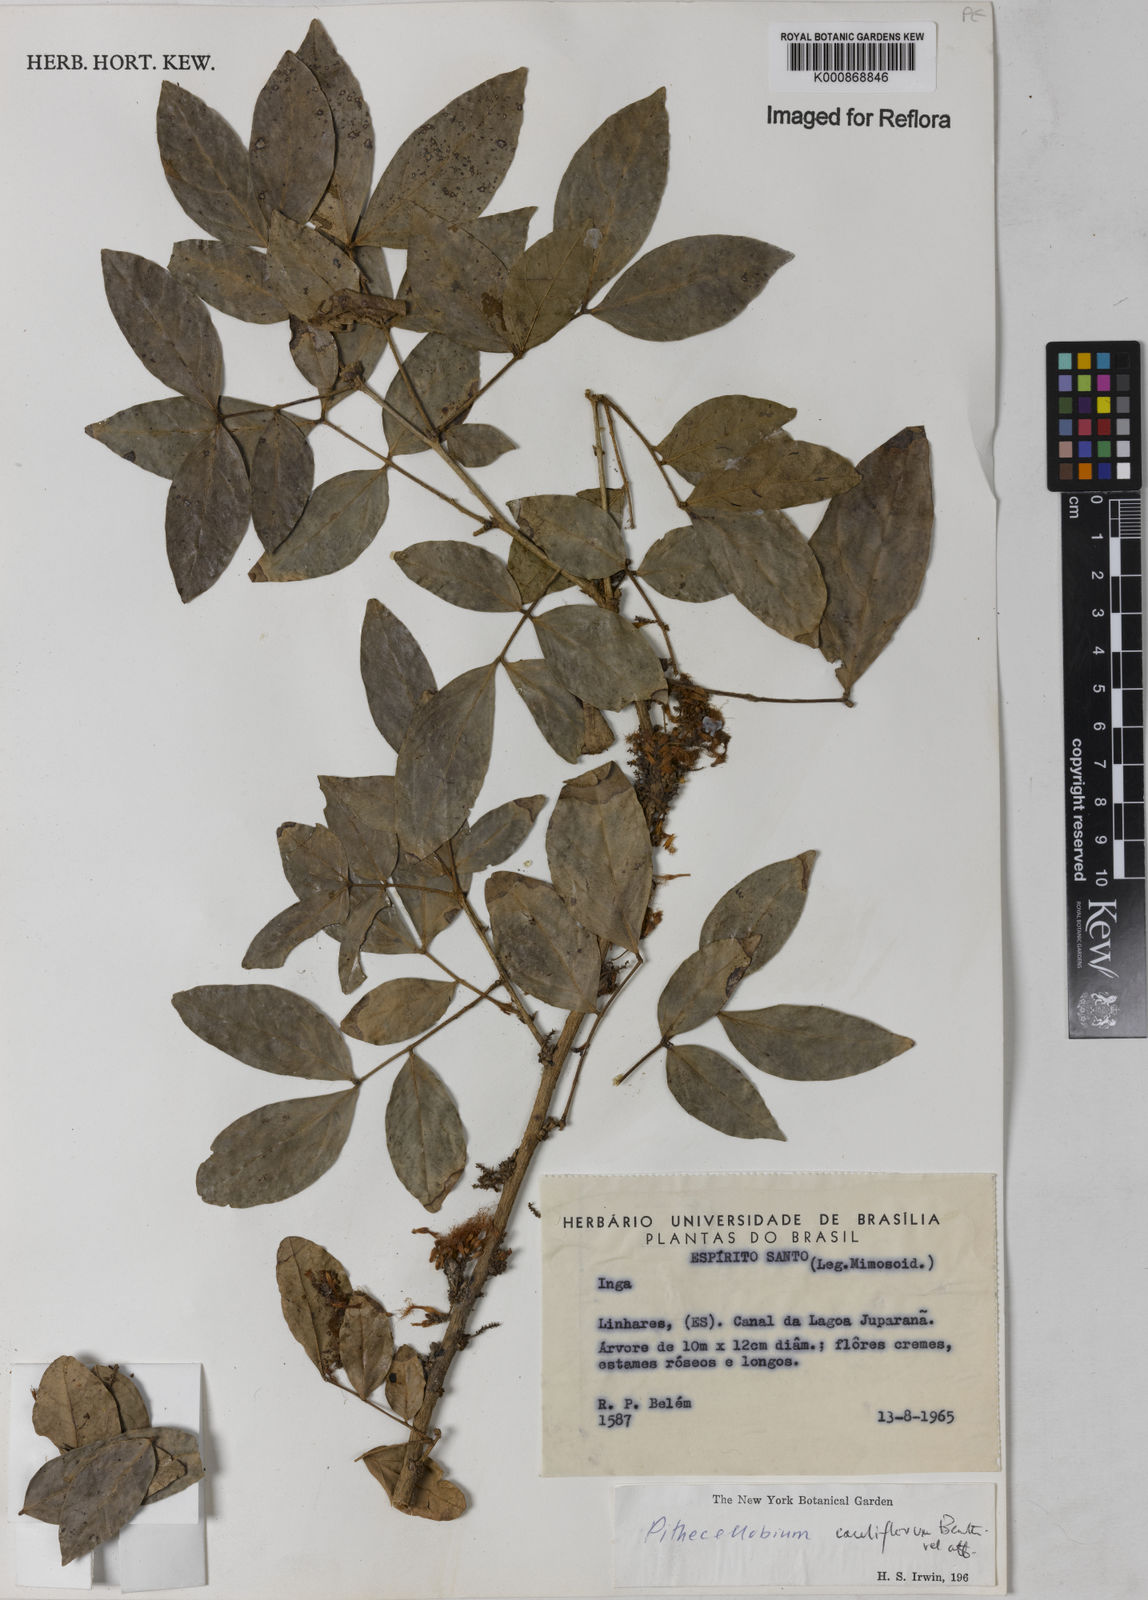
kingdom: Plantae
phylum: Tracheophyta
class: Magnoliopsida
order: Fabales
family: Fabaceae
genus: Zygia
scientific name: Zygia
